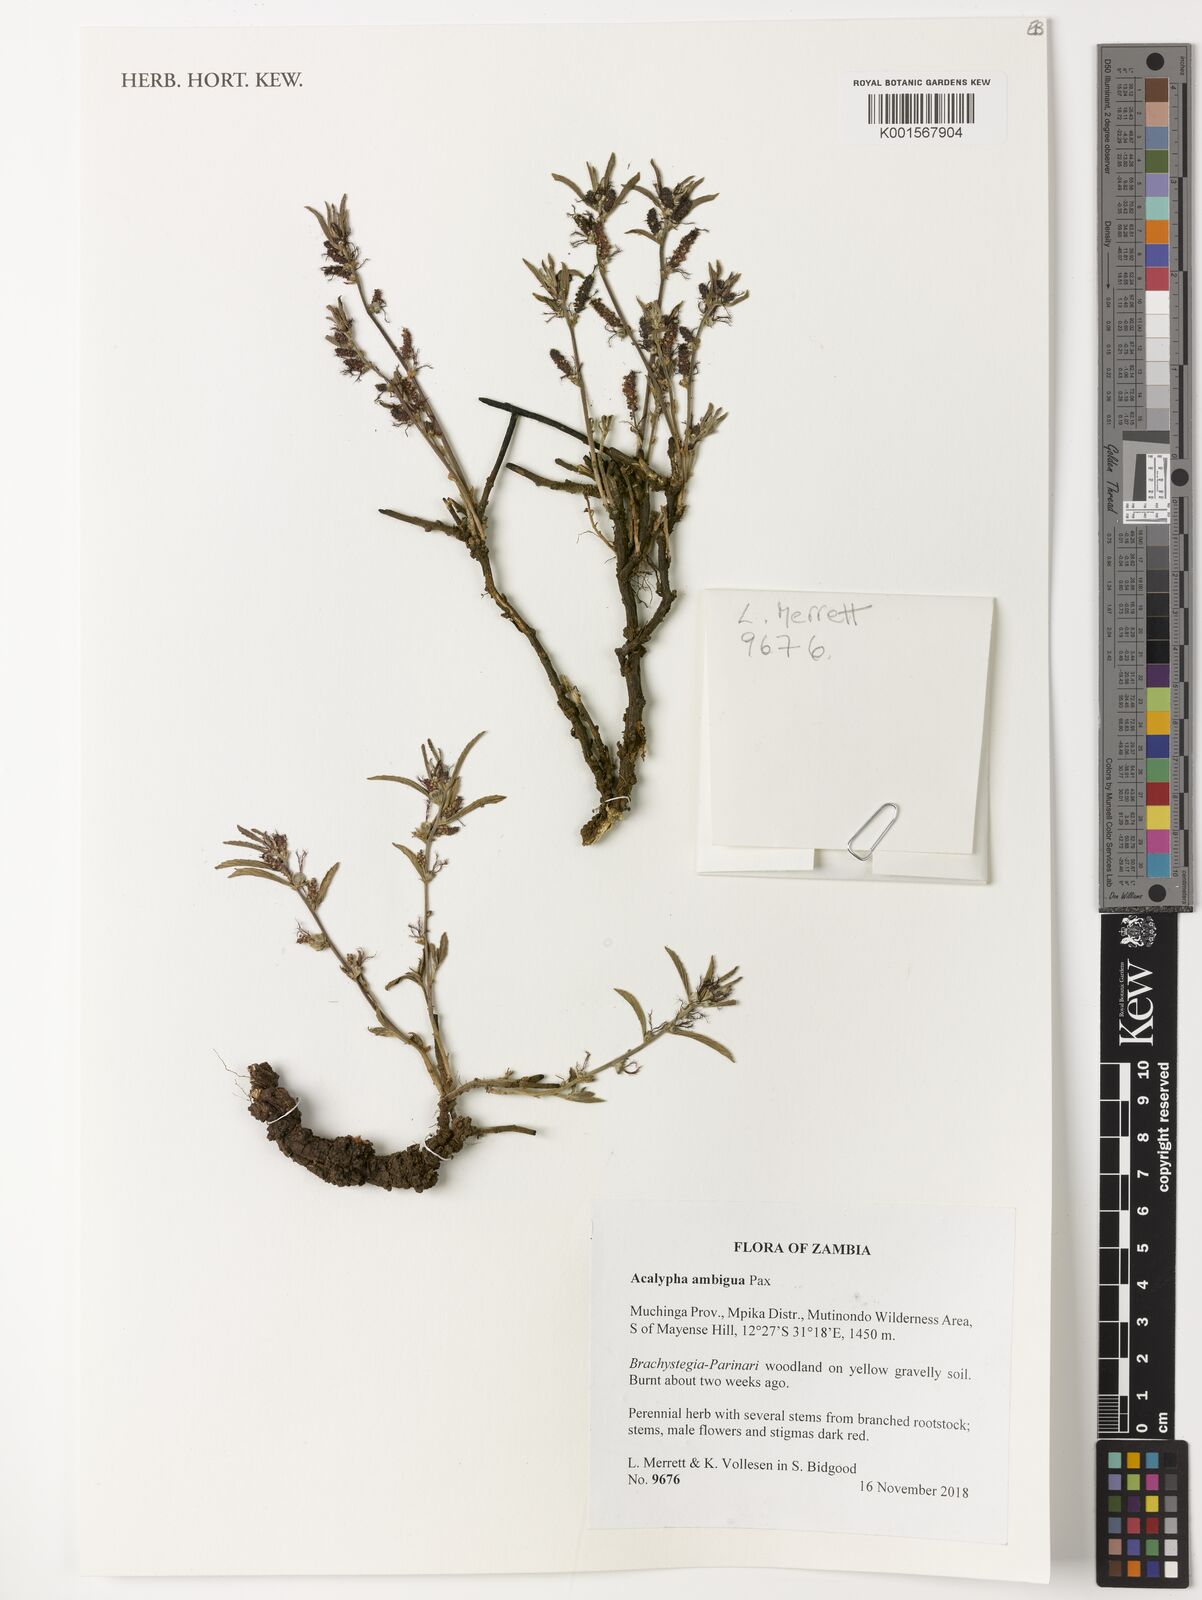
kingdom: Plantae
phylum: Tracheophyta
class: Magnoliopsida
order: Malpighiales
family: Euphorbiaceae
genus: Acalypha
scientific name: Acalypha ambigua
